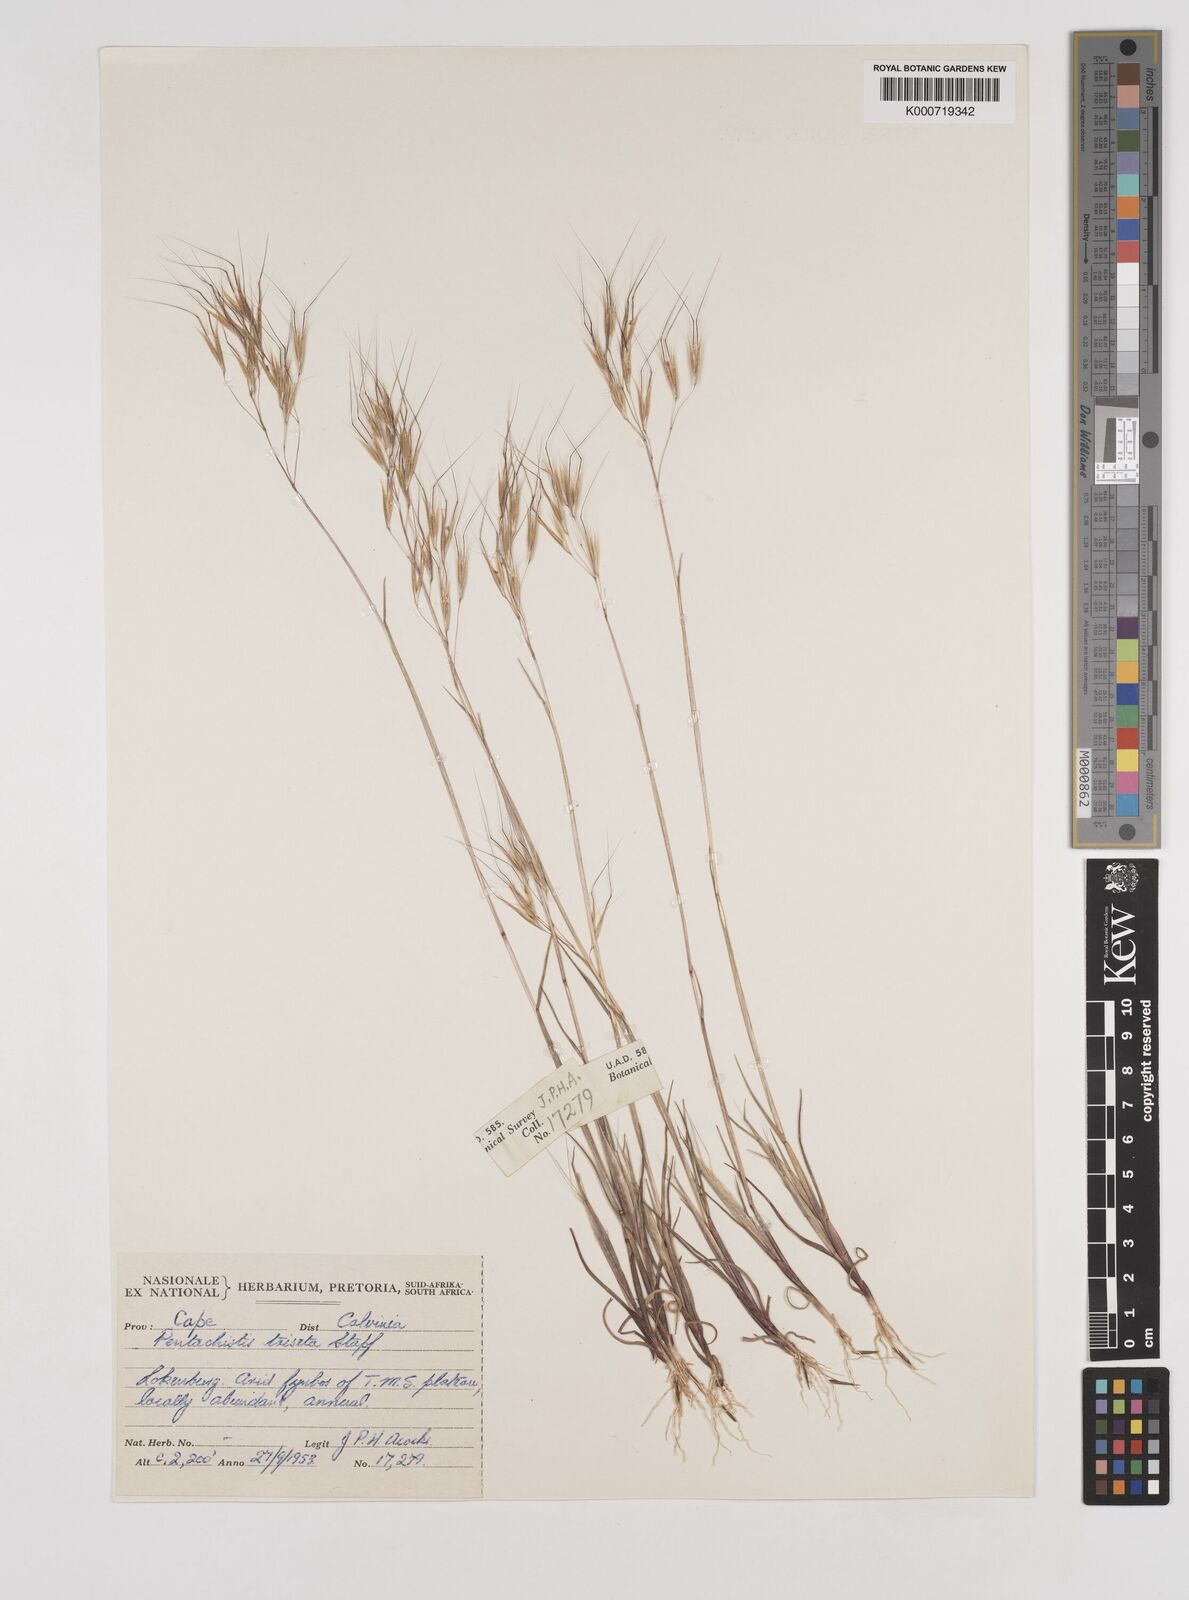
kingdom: Plantae
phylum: Tracheophyta
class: Liliopsida
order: Poales
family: Poaceae
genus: Pentameris
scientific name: Pentameris triseta
